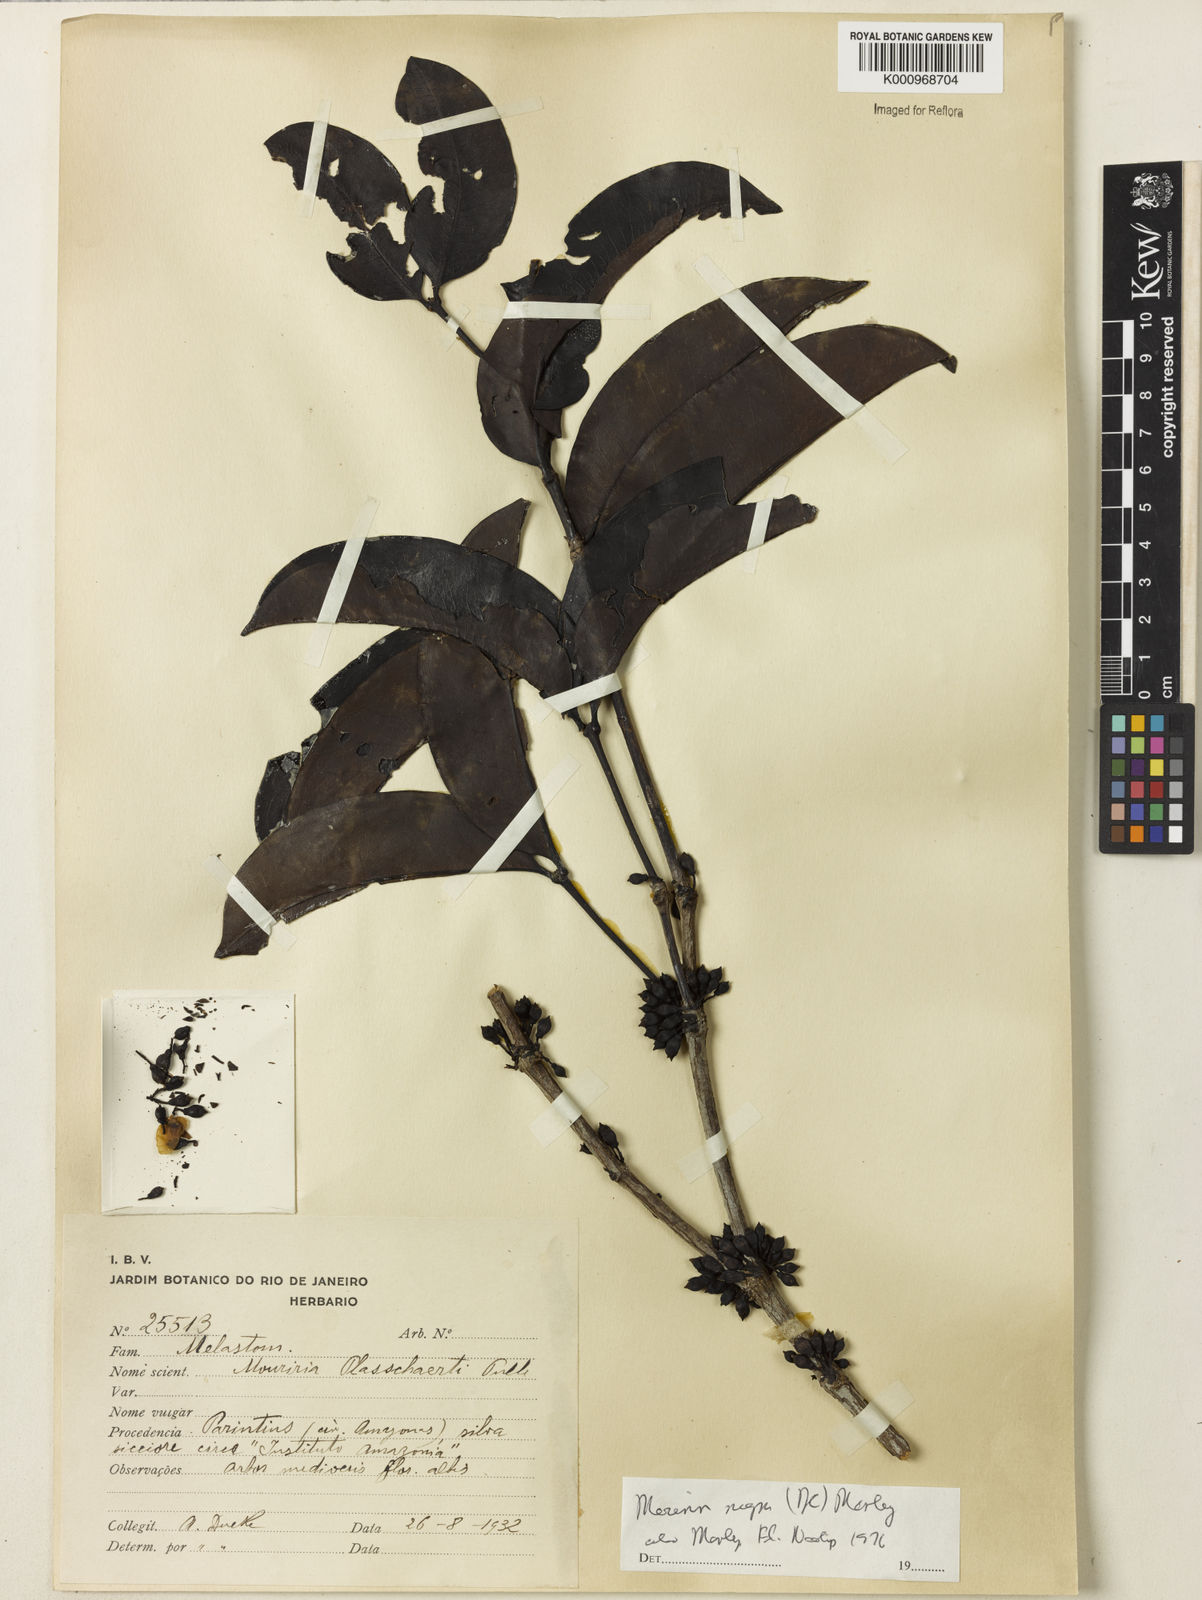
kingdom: Plantae
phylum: Tracheophyta
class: Magnoliopsida
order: Myrtales
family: Melastomataceae
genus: Mouriri
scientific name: Mouriri nigra
